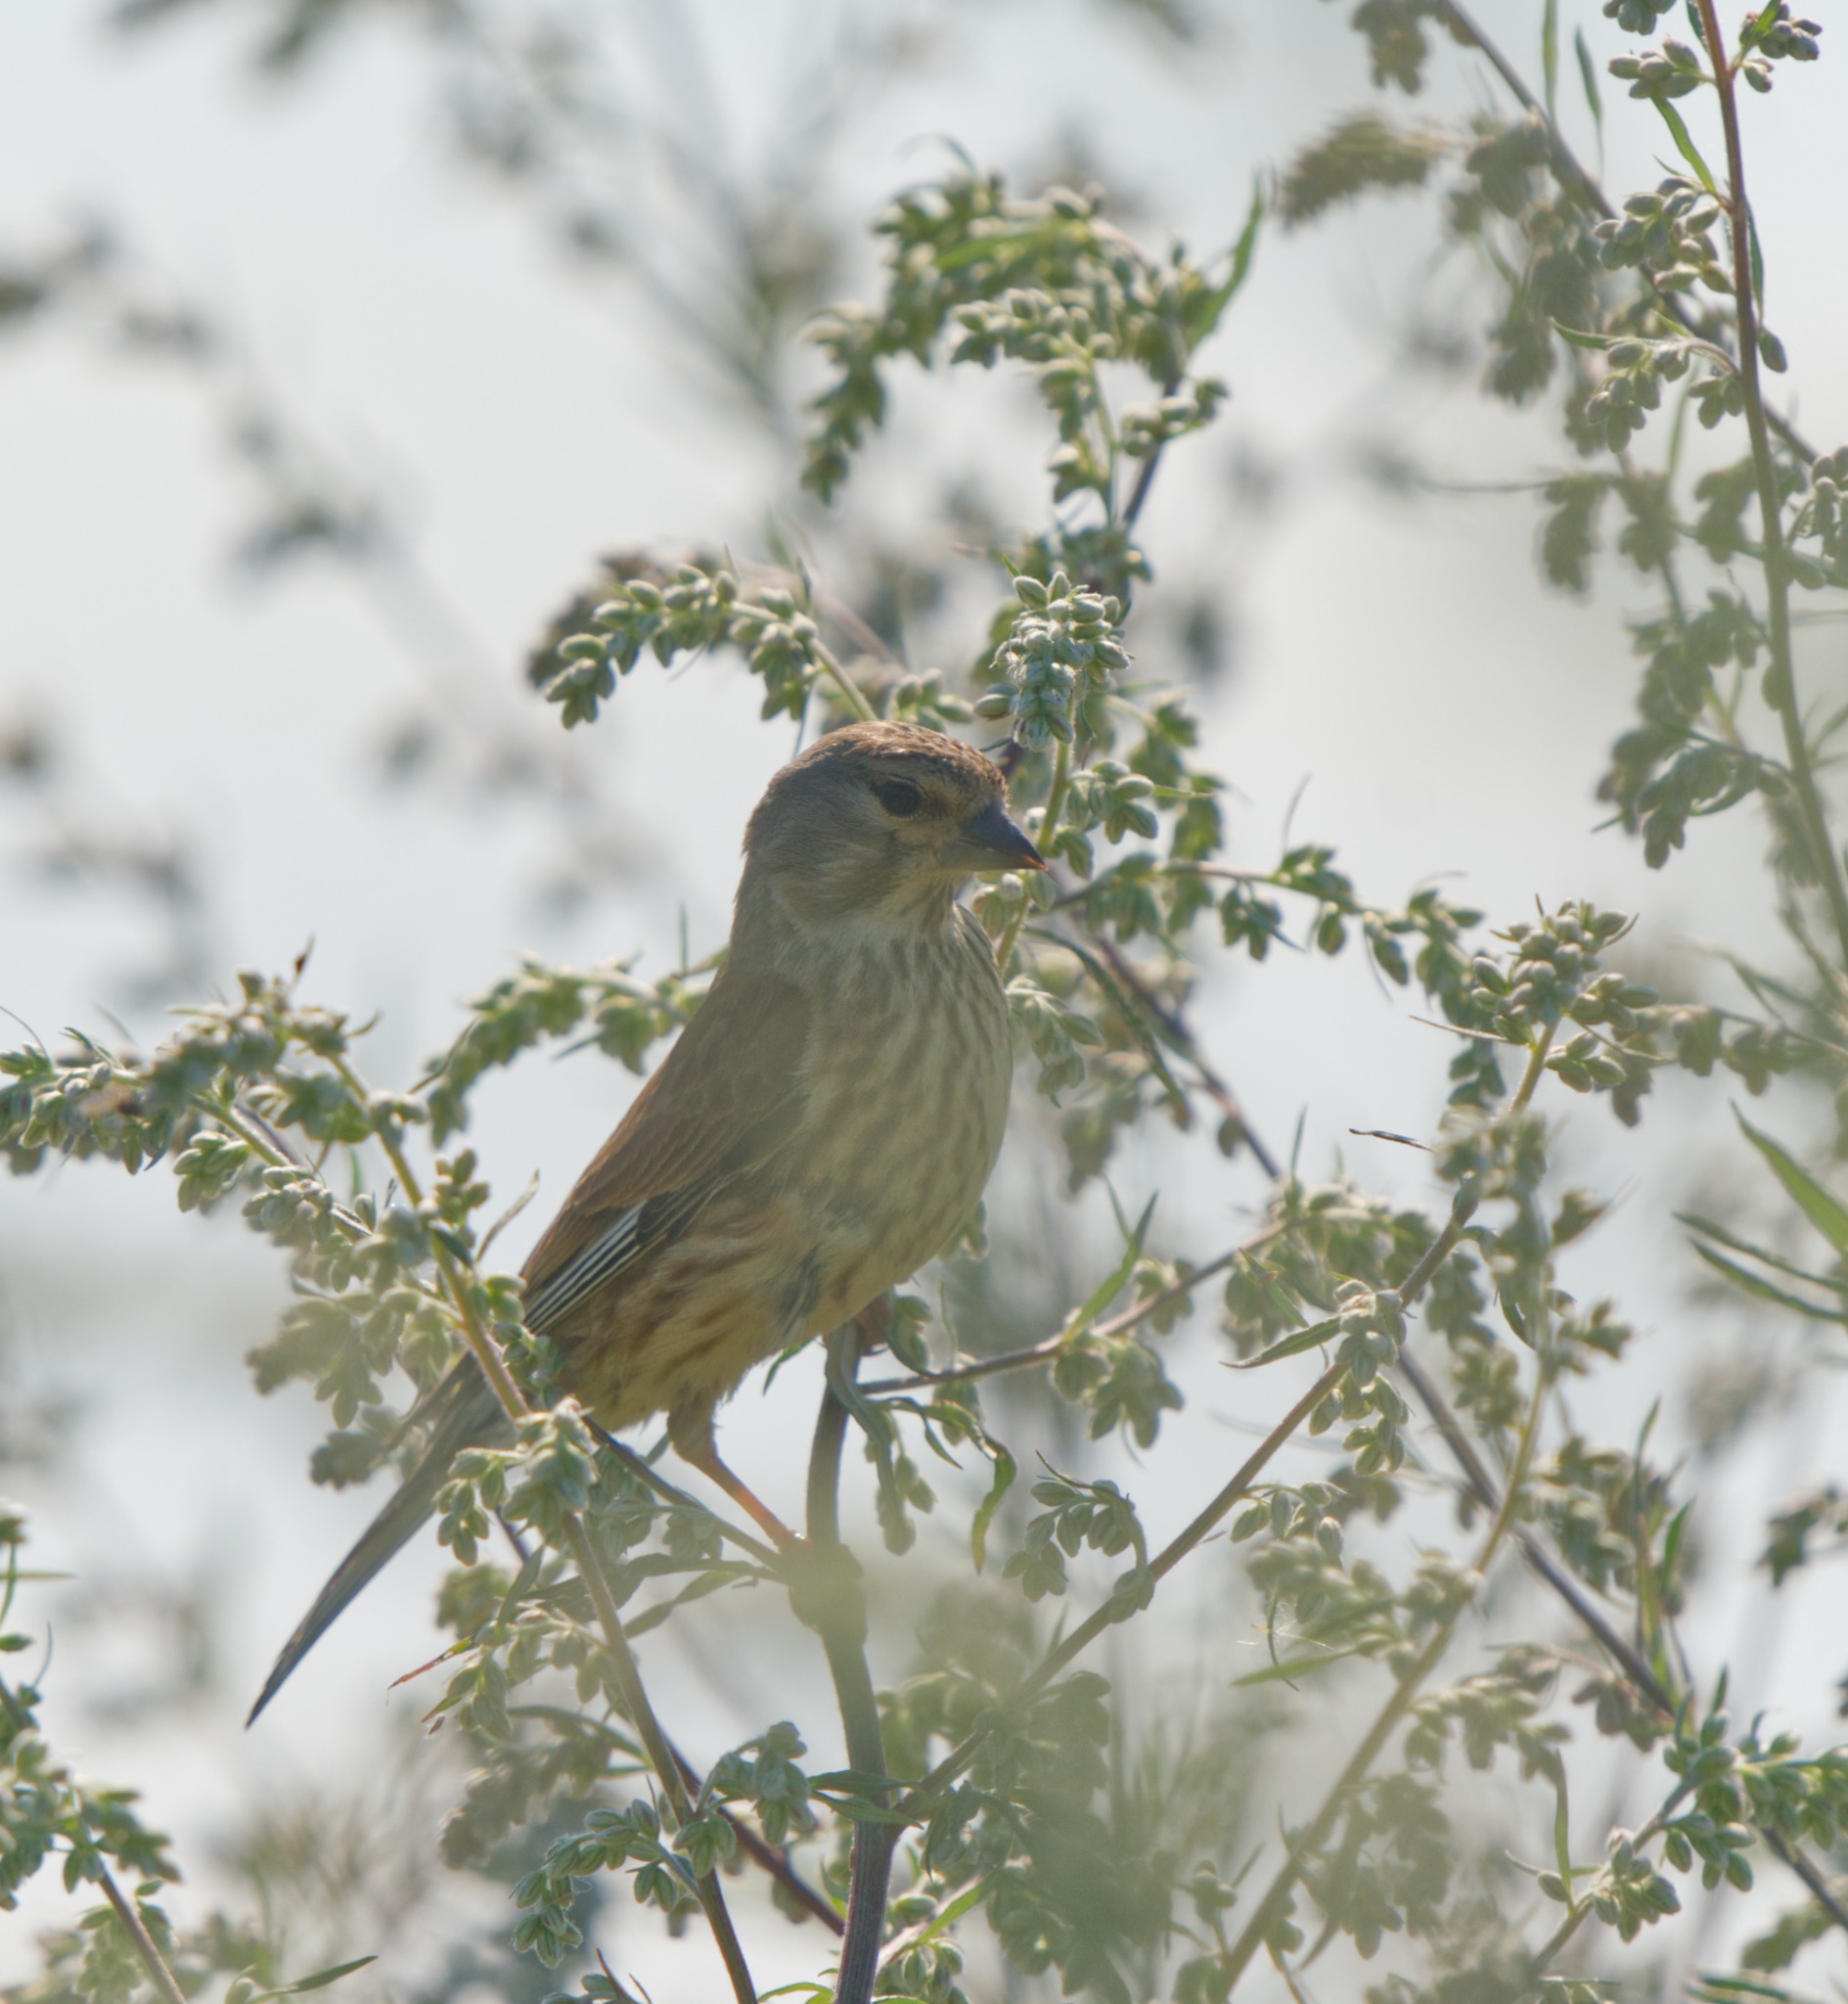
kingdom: Animalia
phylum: Chordata
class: Aves
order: Passeriformes
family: Fringillidae
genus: Linaria
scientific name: Linaria cannabina
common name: Tornirisk
